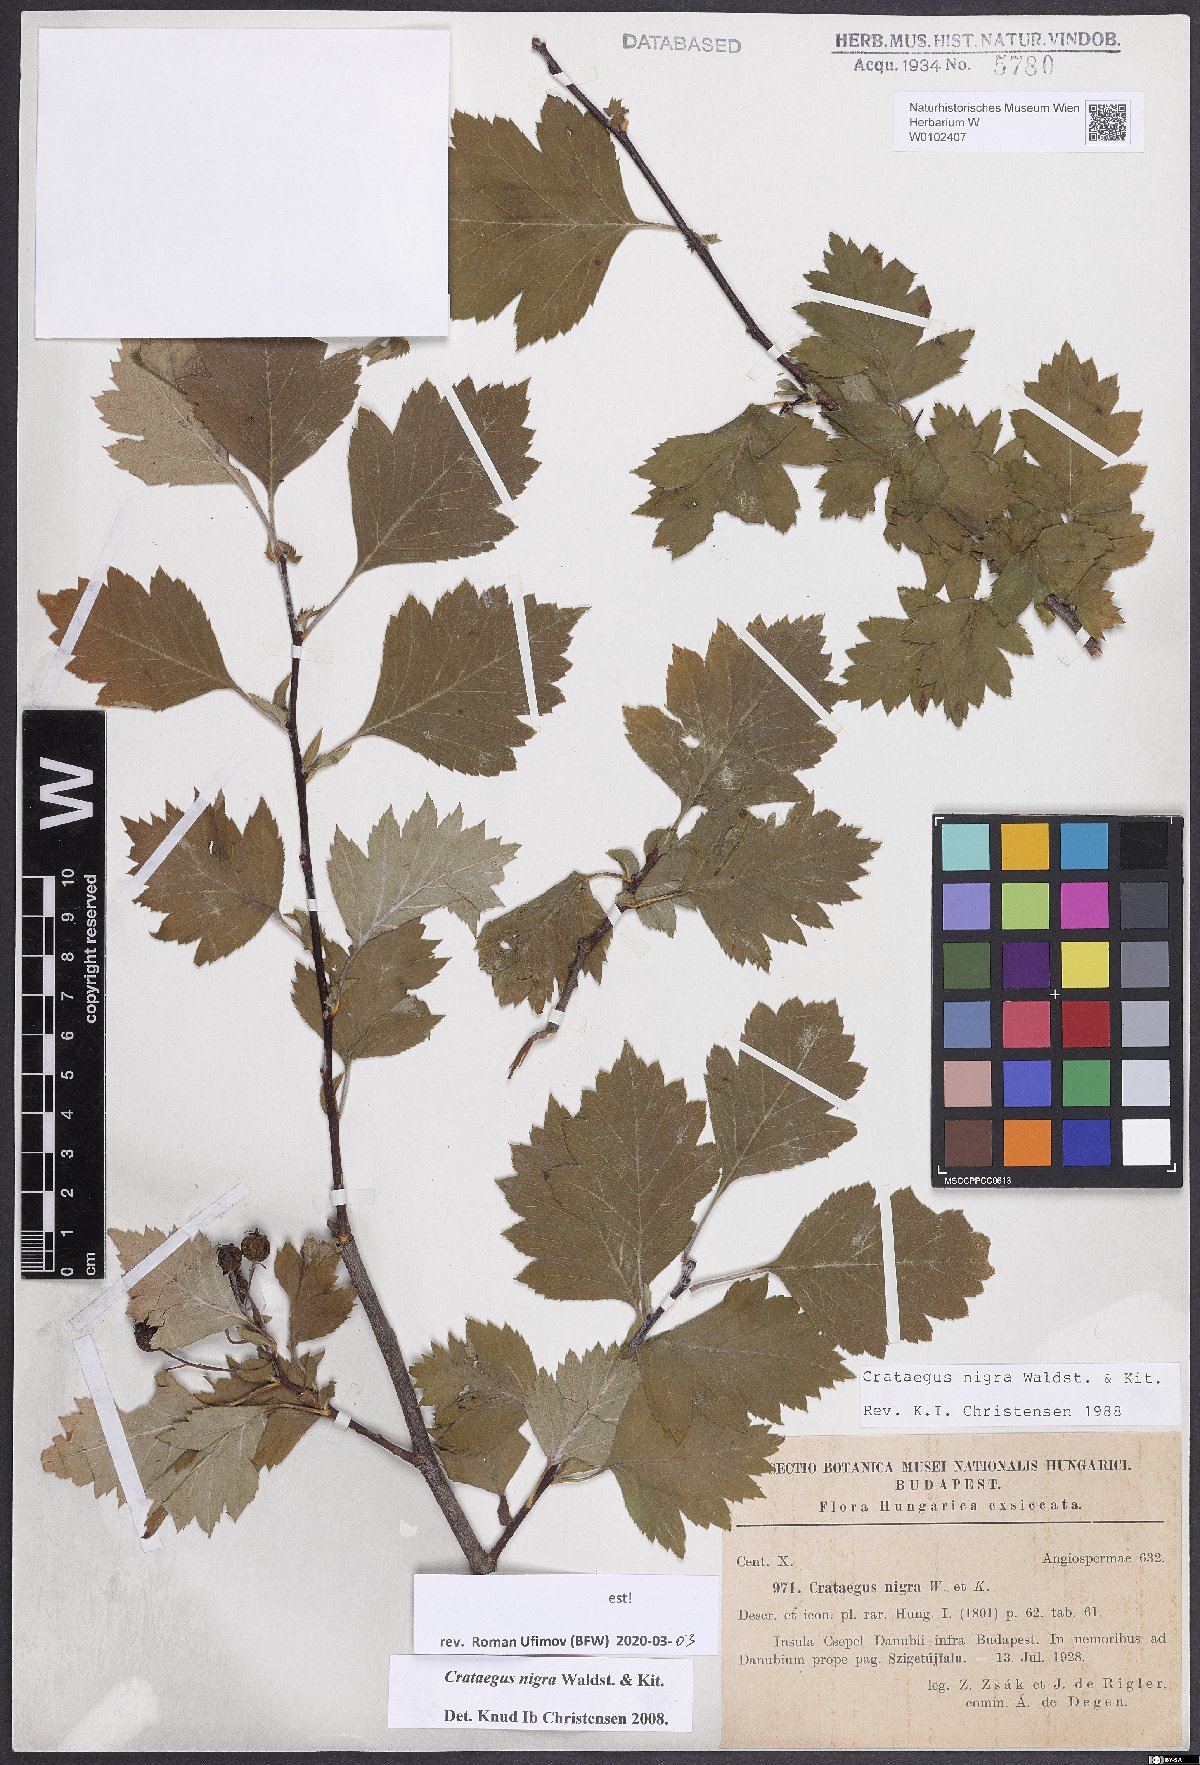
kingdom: Plantae
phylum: Tracheophyta
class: Magnoliopsida
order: Rosales
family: Rosaceae
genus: Crataegus
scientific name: Crataegus nigra
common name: Hungarian thorn
